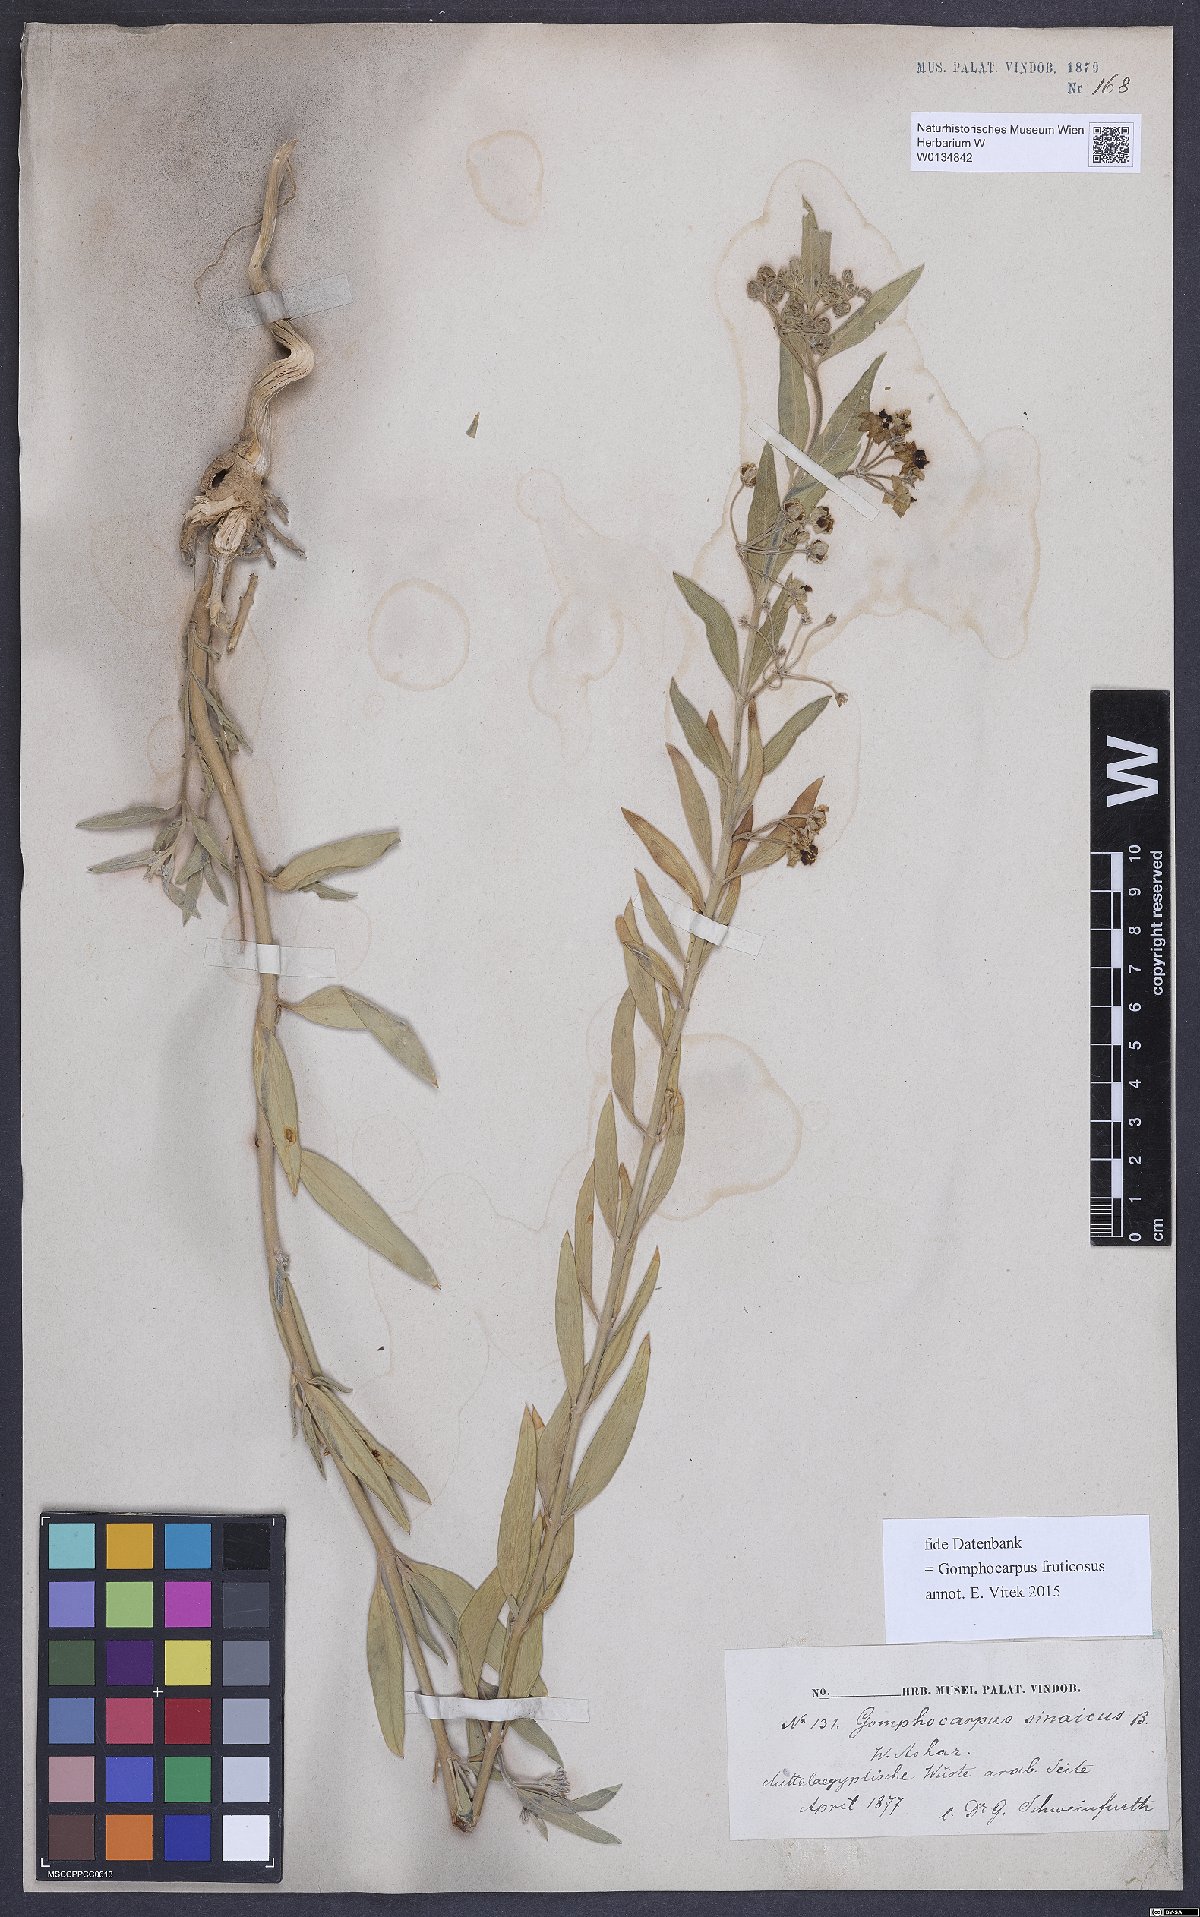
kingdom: Plantae
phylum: Tracheophyta
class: Magnoliopsida
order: Gentianales
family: Apocynaceae
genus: Gomphocarpus
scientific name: Gomphocarpus fruticosus
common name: Milkweed
